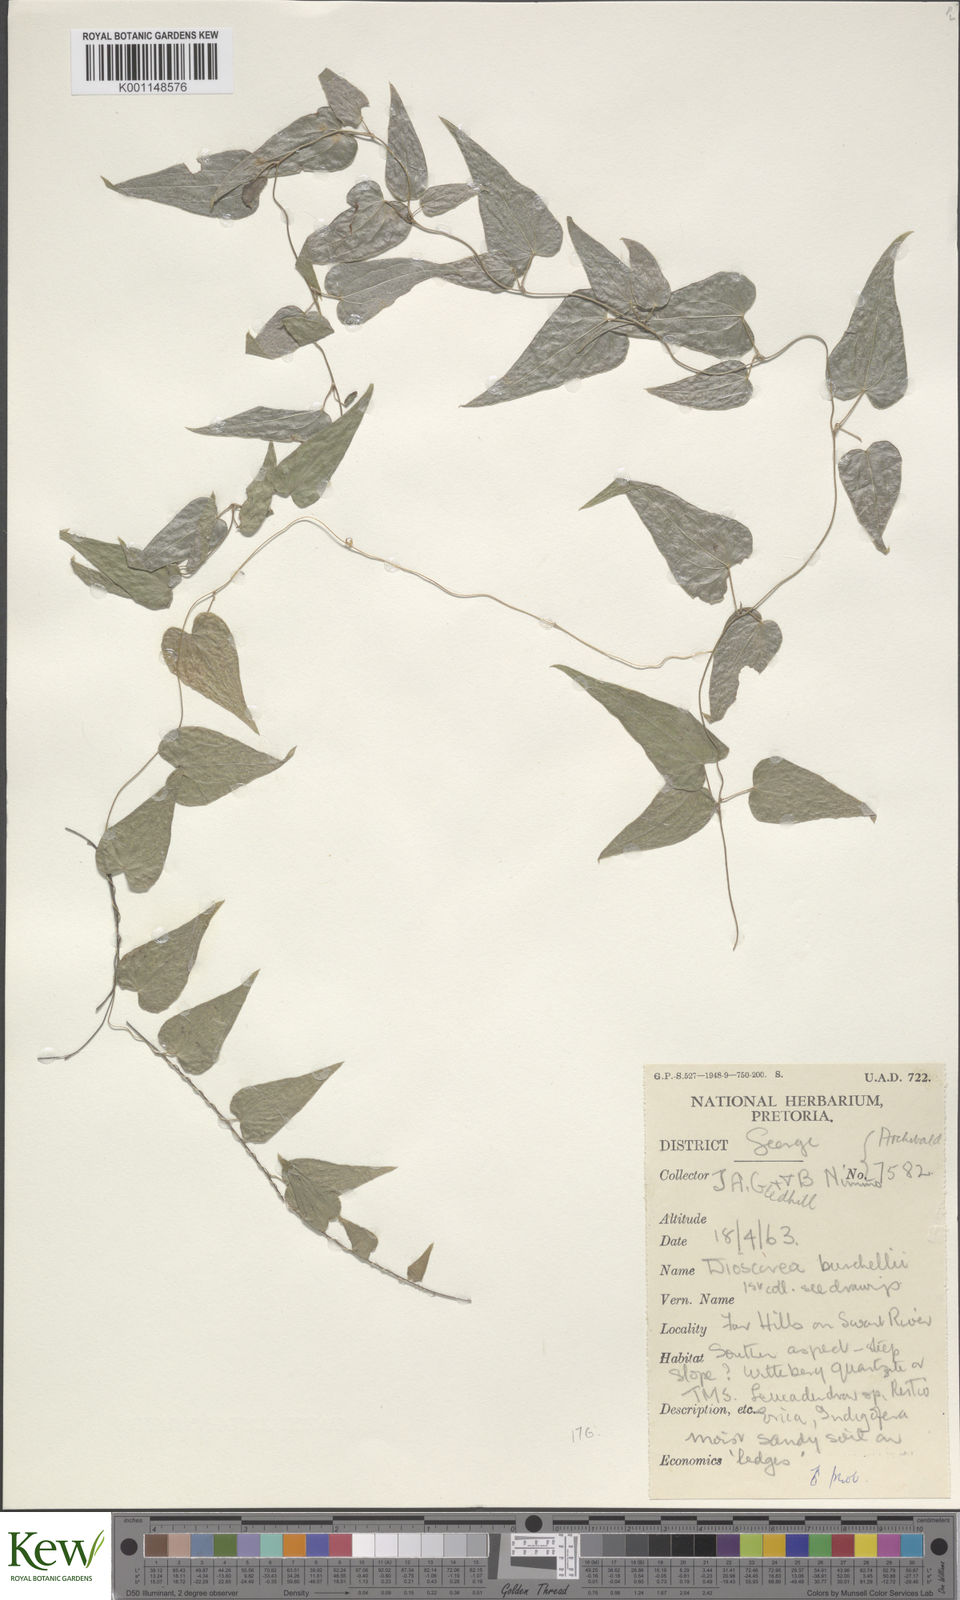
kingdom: Plantae
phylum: Tracheophyta
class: Liliopsida
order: Dioscoreales
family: Dioscoreaceae
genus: Dioscorea
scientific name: Dioscorea burchellii
